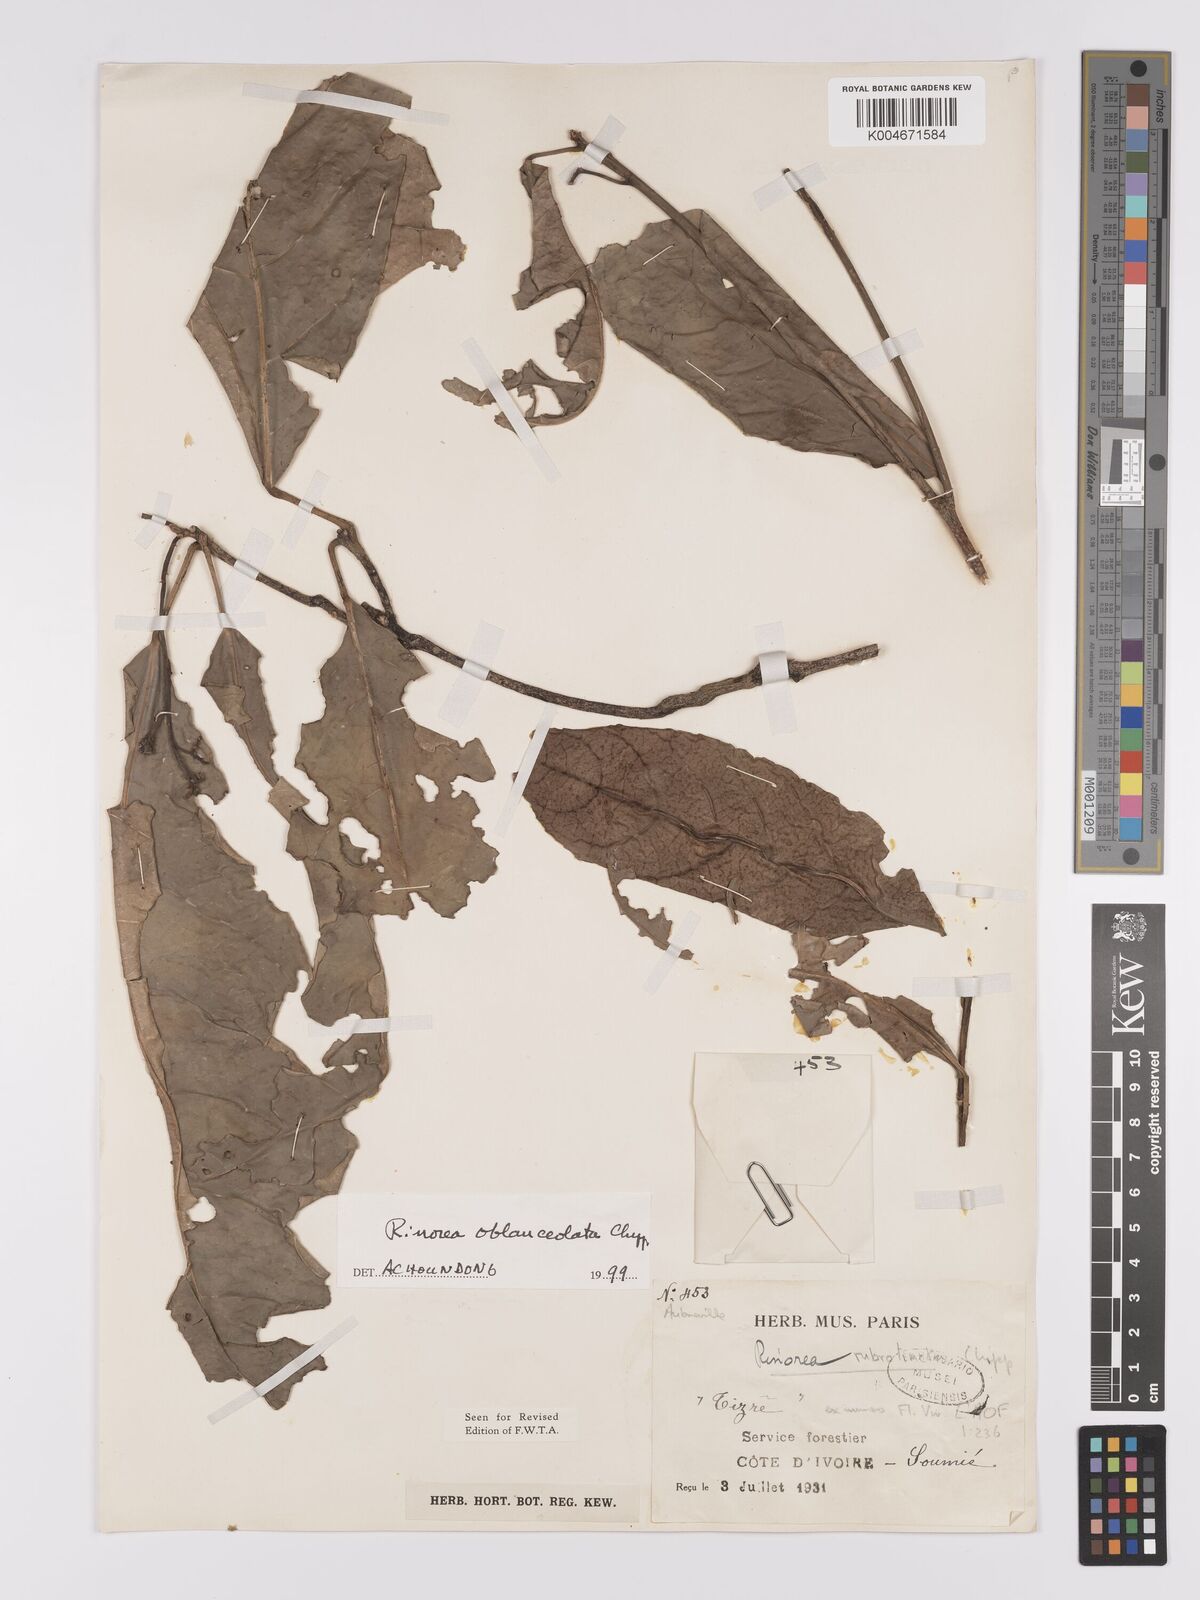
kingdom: Plantae
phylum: Tracheophyta
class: Magnoliopsida
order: Malpighiales
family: Violaceae
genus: Rinorea
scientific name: Rinorea oblanceolata
